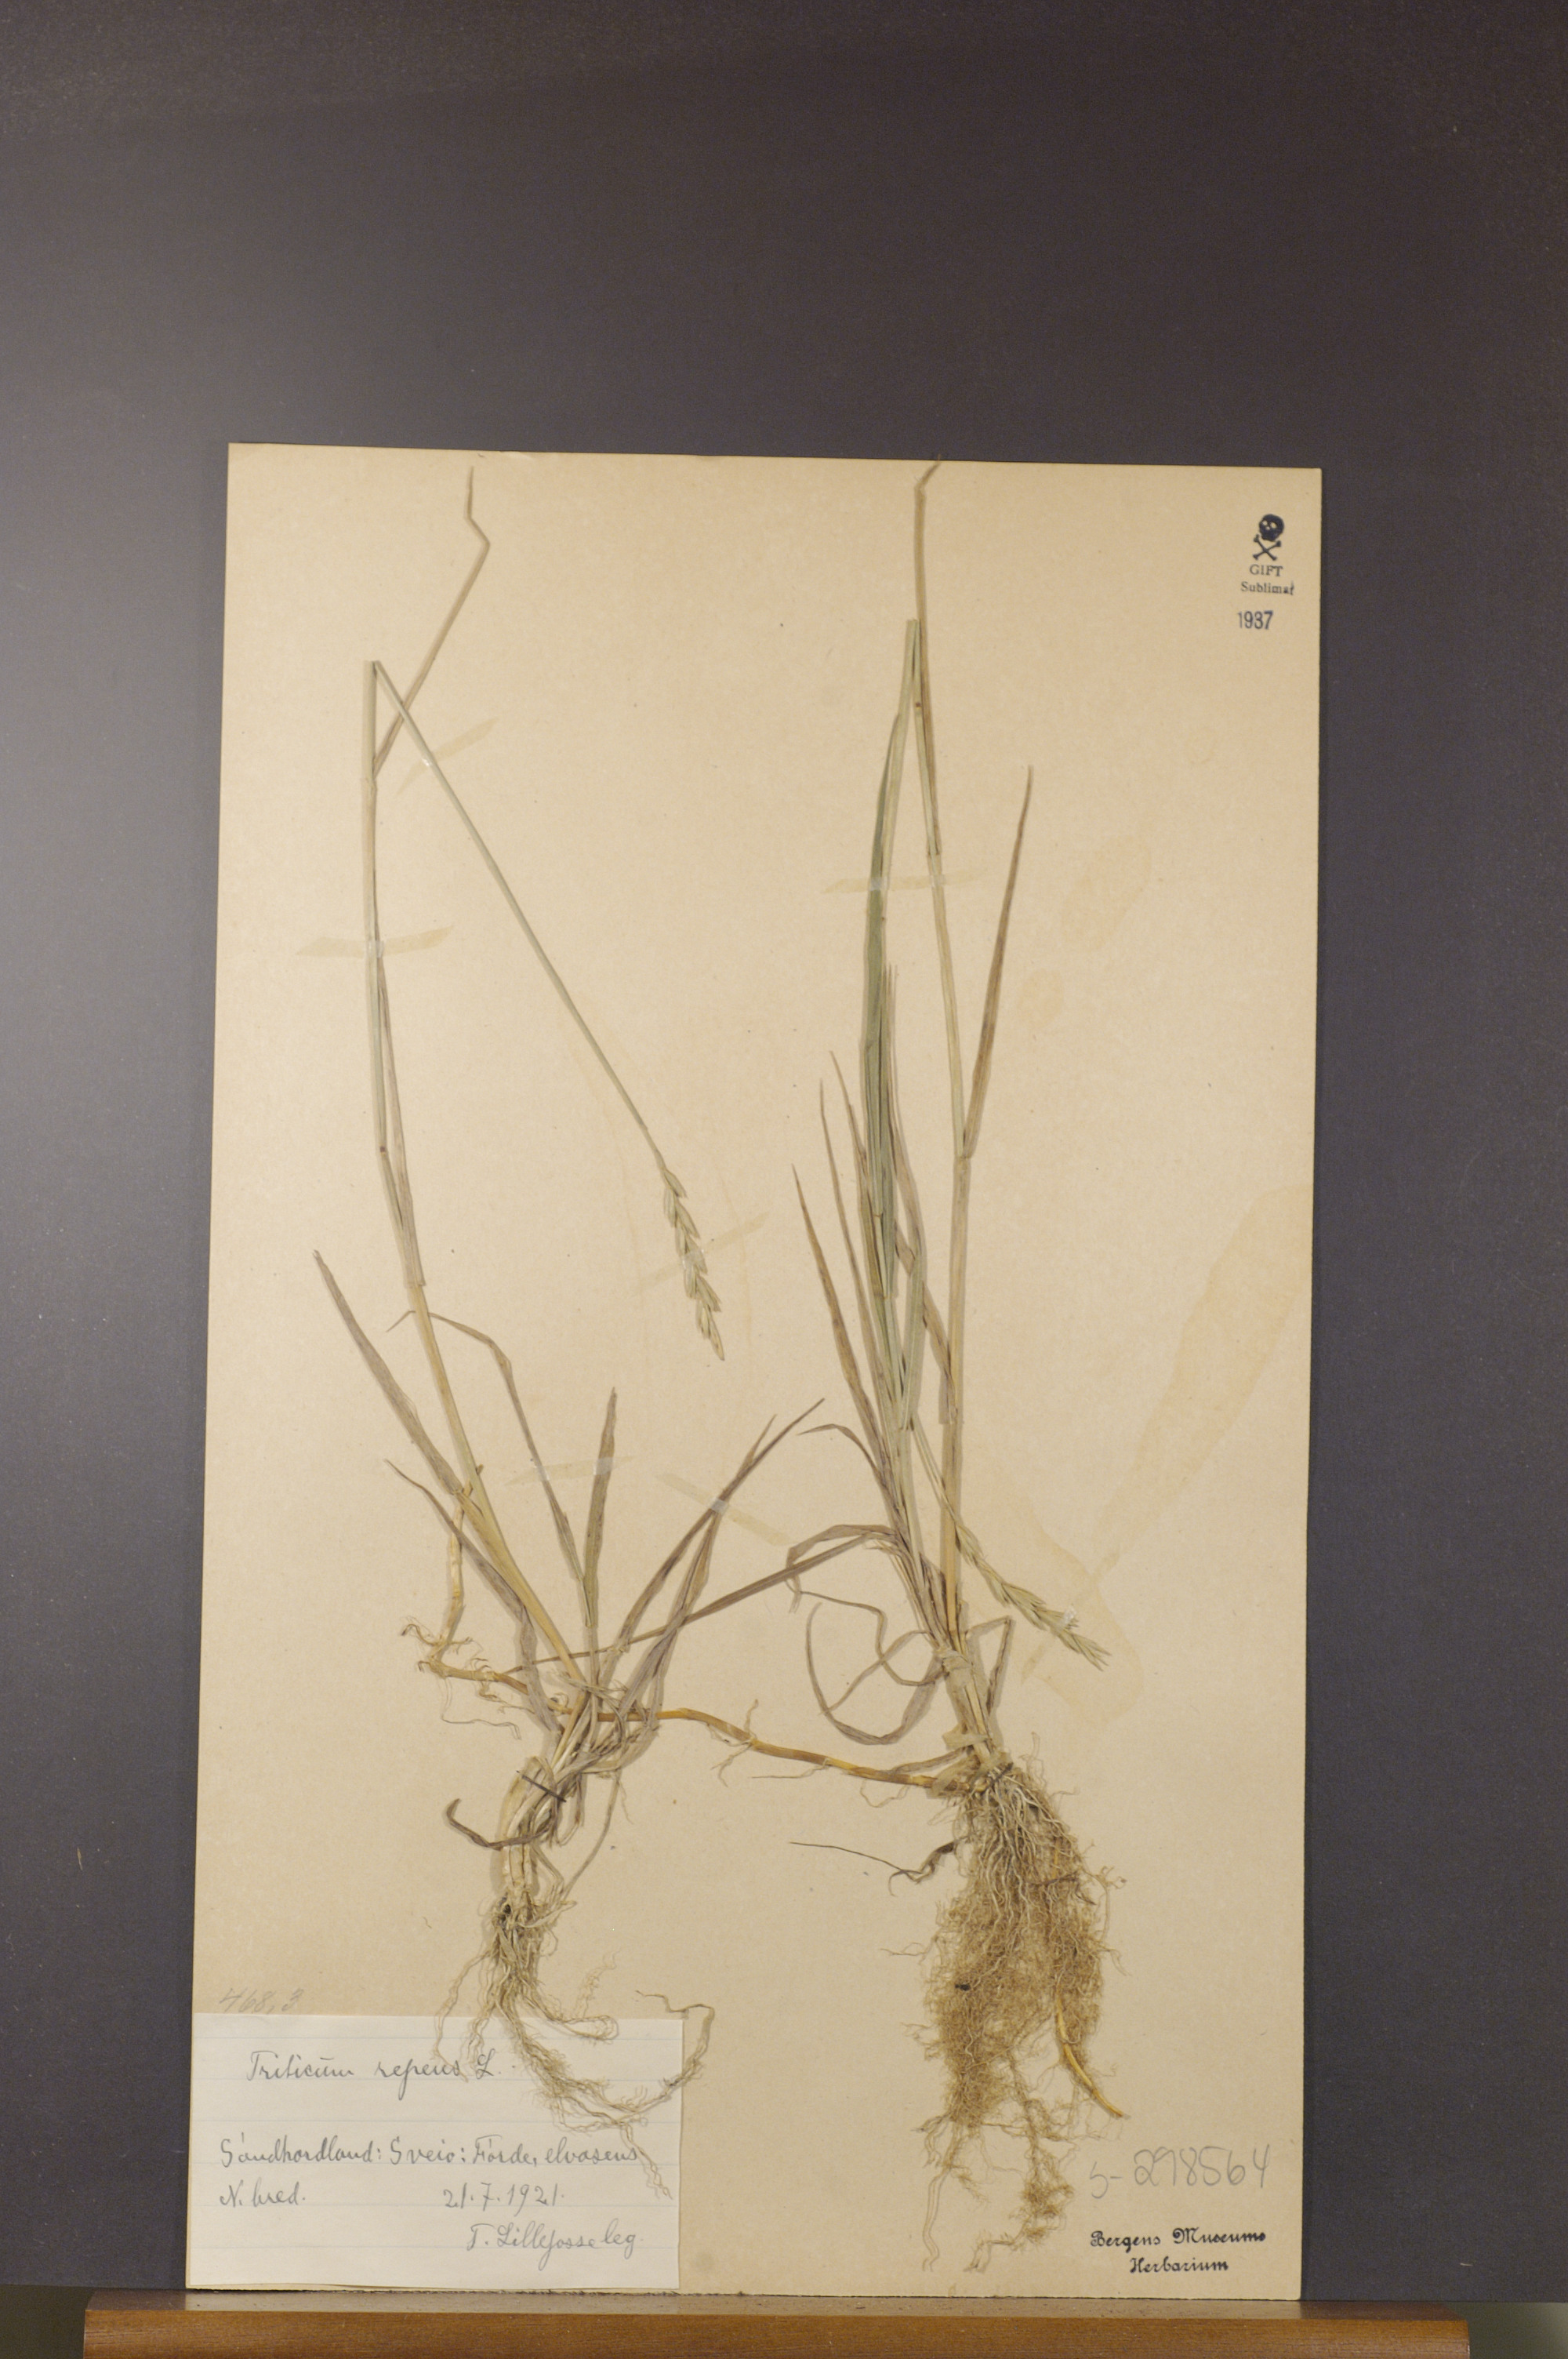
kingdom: Plantae
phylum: Tracheophyta
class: Liliopsida
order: Poales
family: Poaceae
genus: Elymus
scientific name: Elymus repens
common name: Quackgrass
